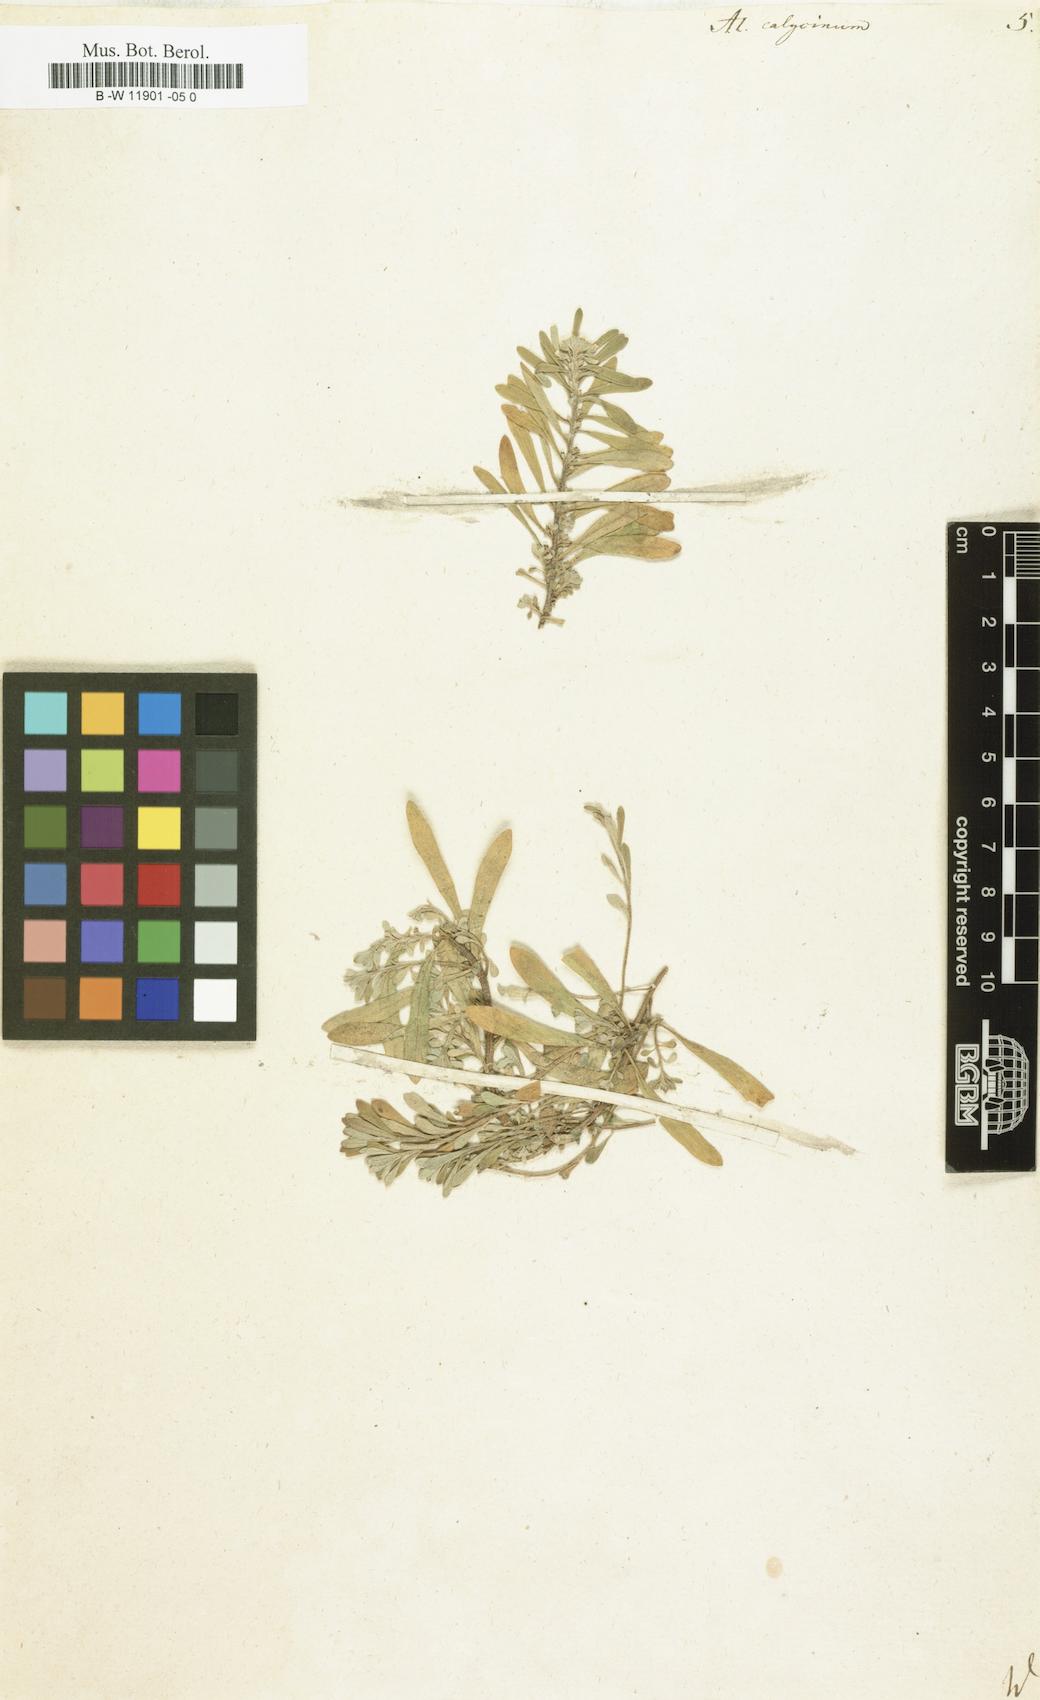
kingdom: Plantae
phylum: Tracheophyta
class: Magnoliopsida
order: Brassicales
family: Brassicaceae
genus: Alyssum
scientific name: Alyssum alyssoides
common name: Small alison
